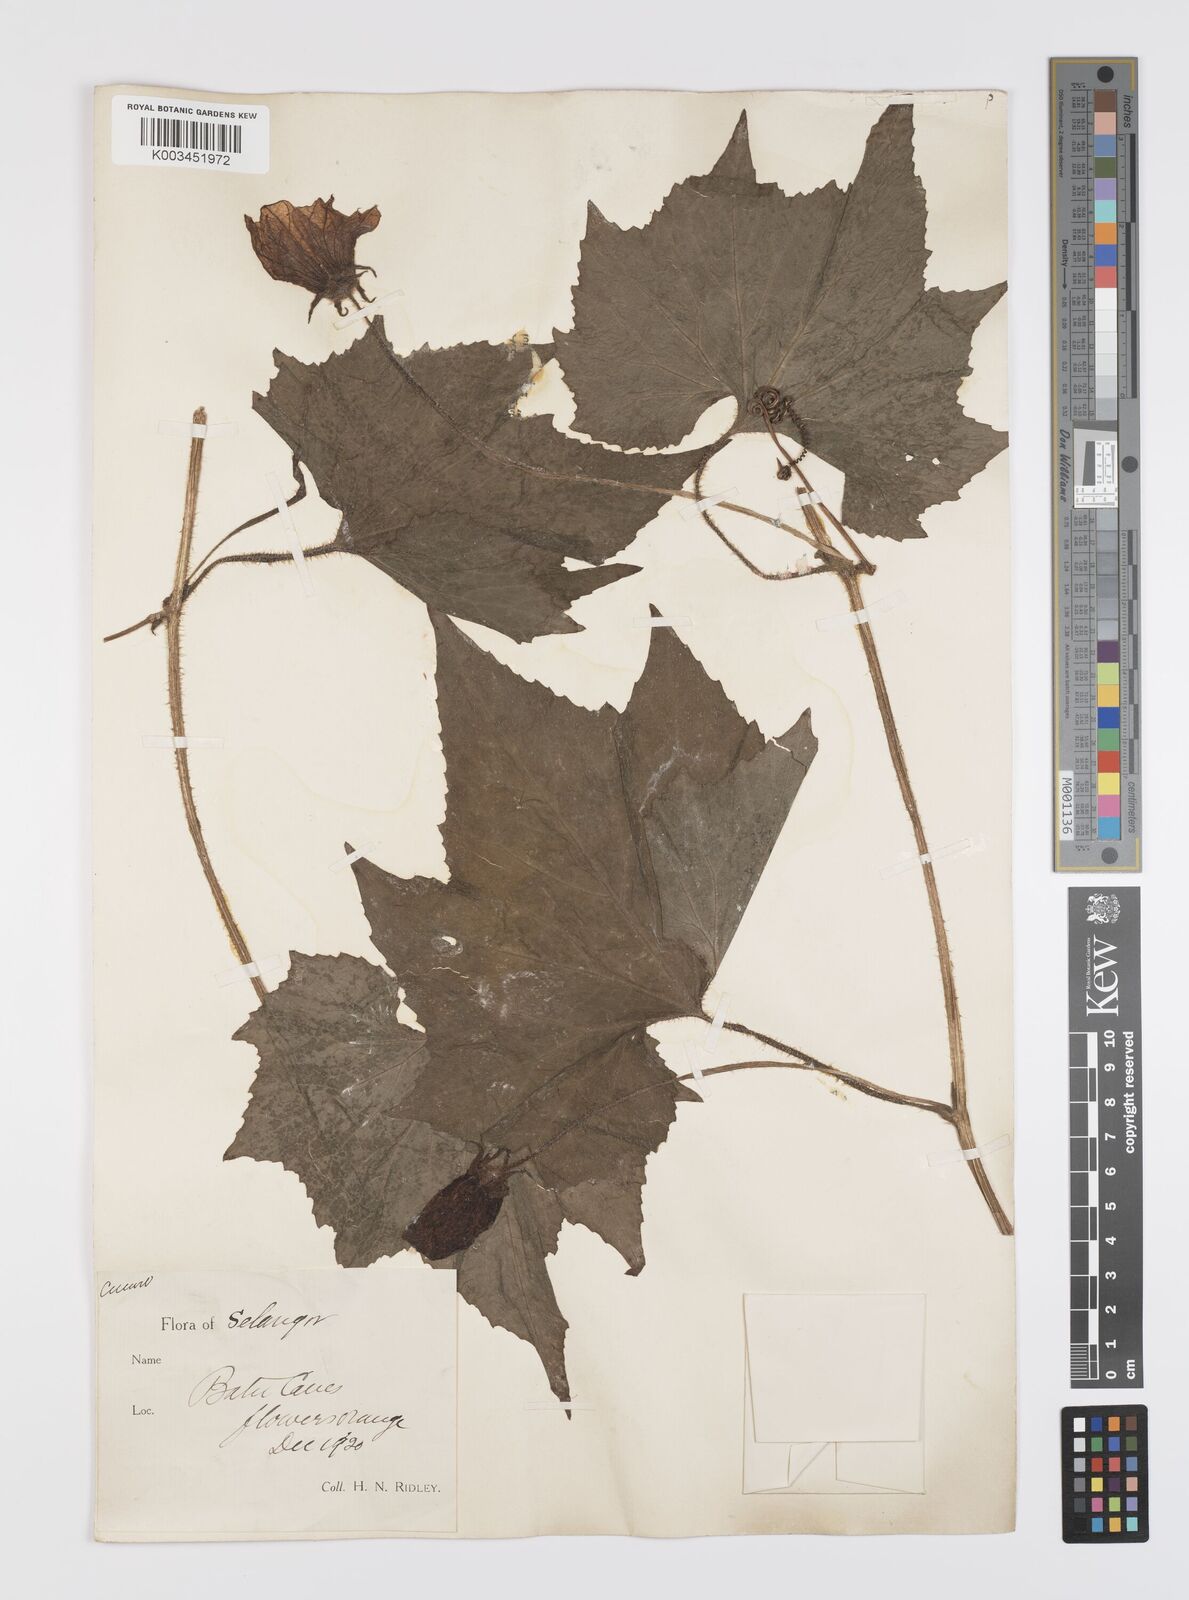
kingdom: Plantae
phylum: Tracheophyta
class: Magnoliopsida
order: Cucurbitales
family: Cucurbitaceae
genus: Benincasa
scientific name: Benincasa hispida
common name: Chinese-watermelon
